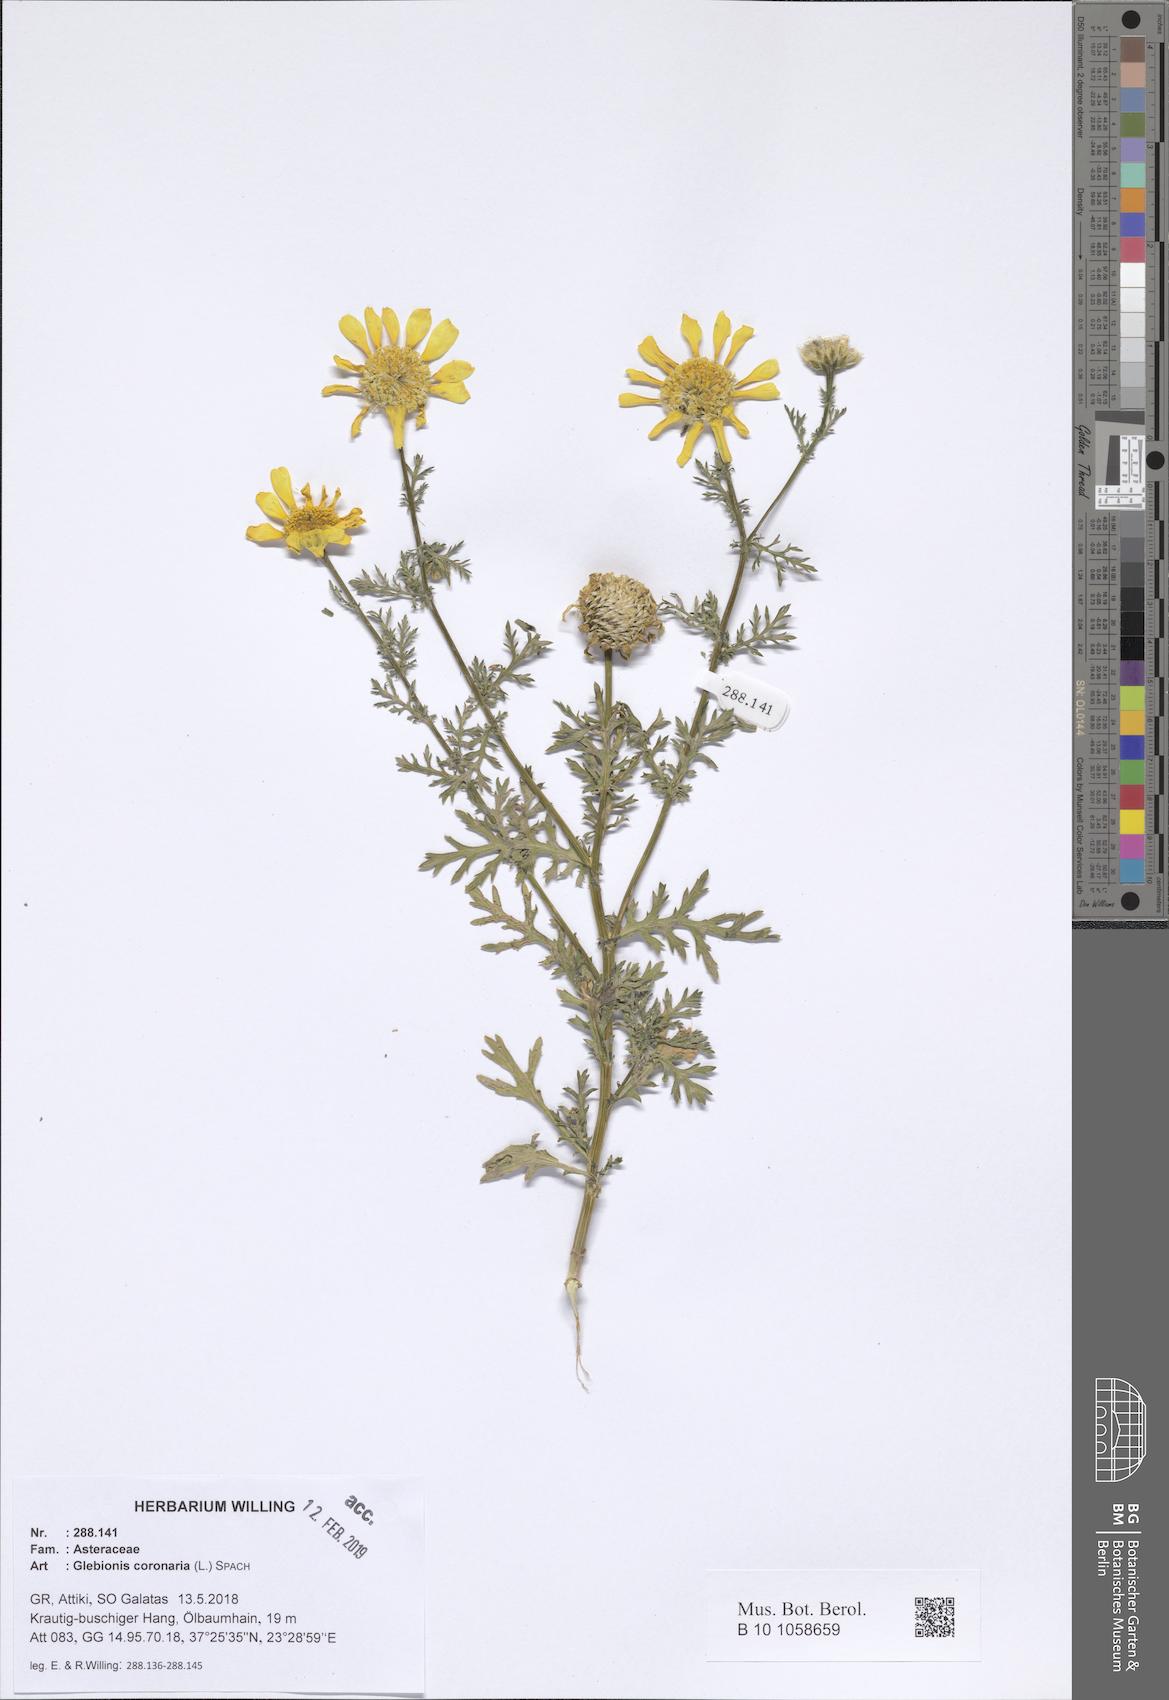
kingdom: Plantae
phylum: Tracheophyta
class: Magnoliopsida
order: Asterales
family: Asteraceae
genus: Glebionis
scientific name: Glebionis coronaria
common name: Crowndaisy
